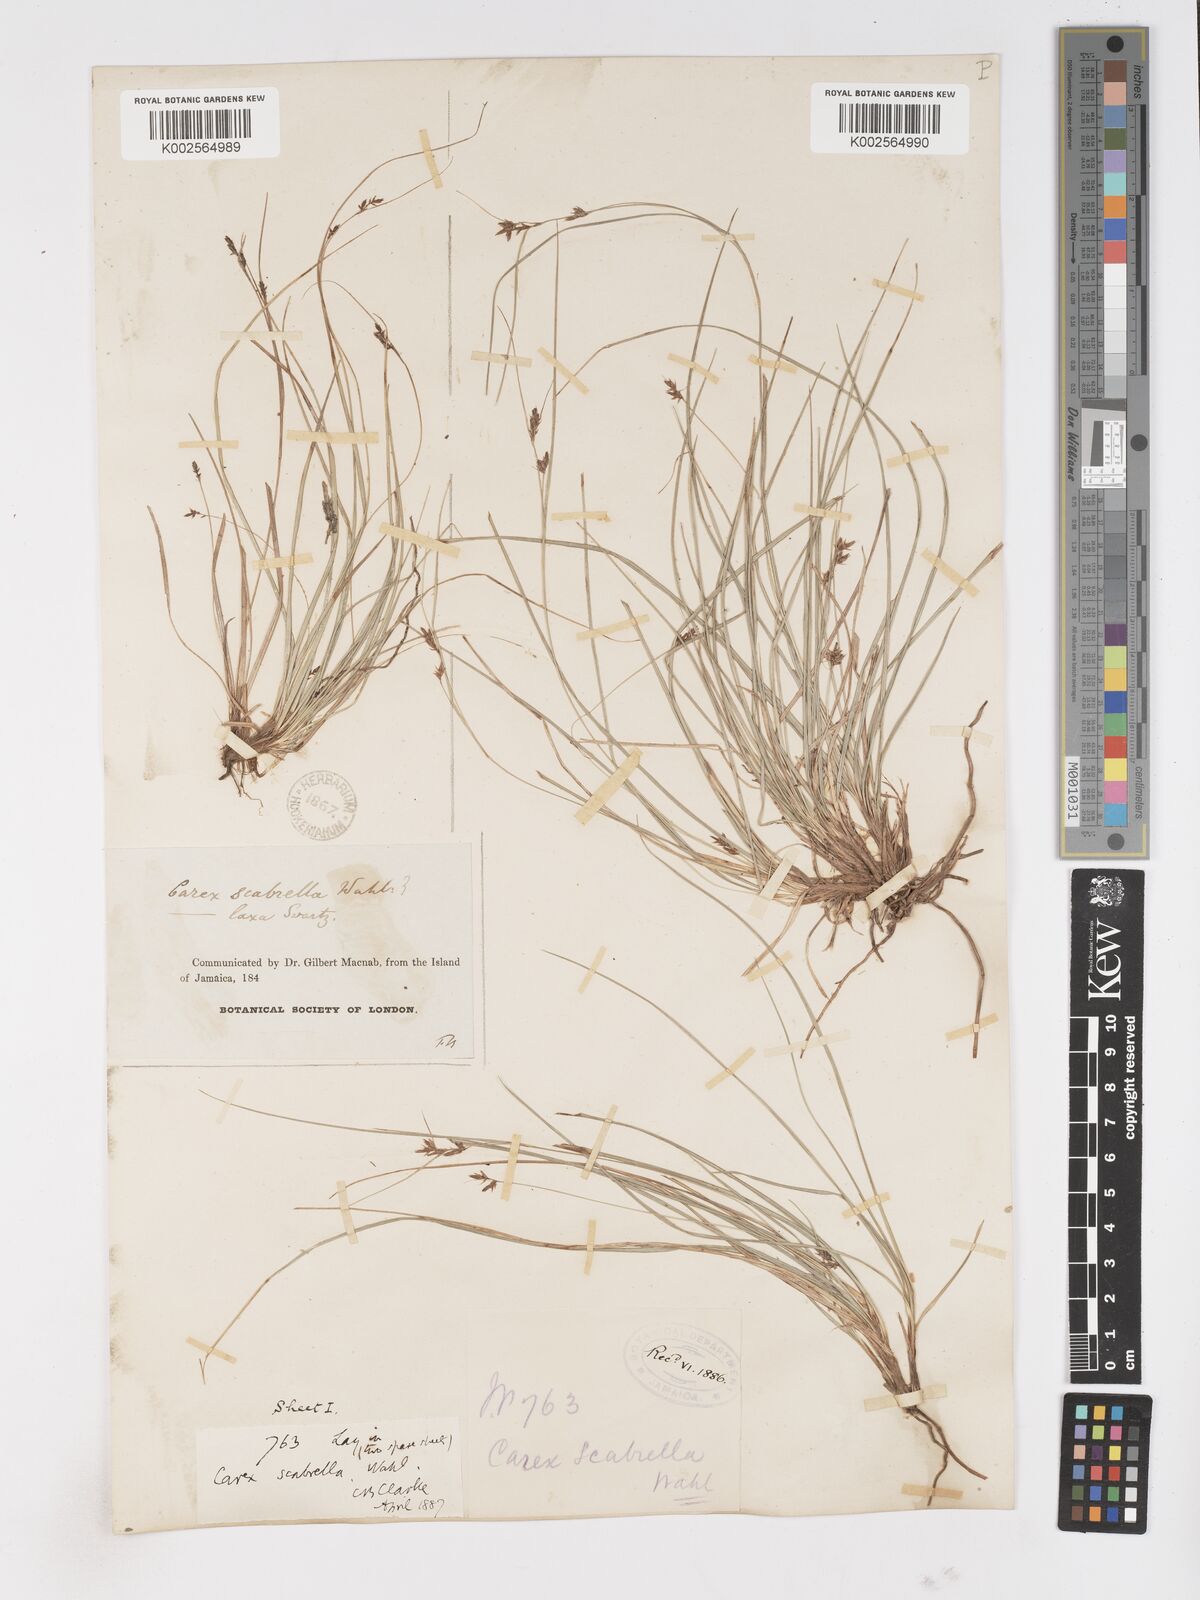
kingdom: Plantae
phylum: Tracheophyta
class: Liliopsida
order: Poales
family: Cyperaceae
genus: Carex
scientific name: Carex
